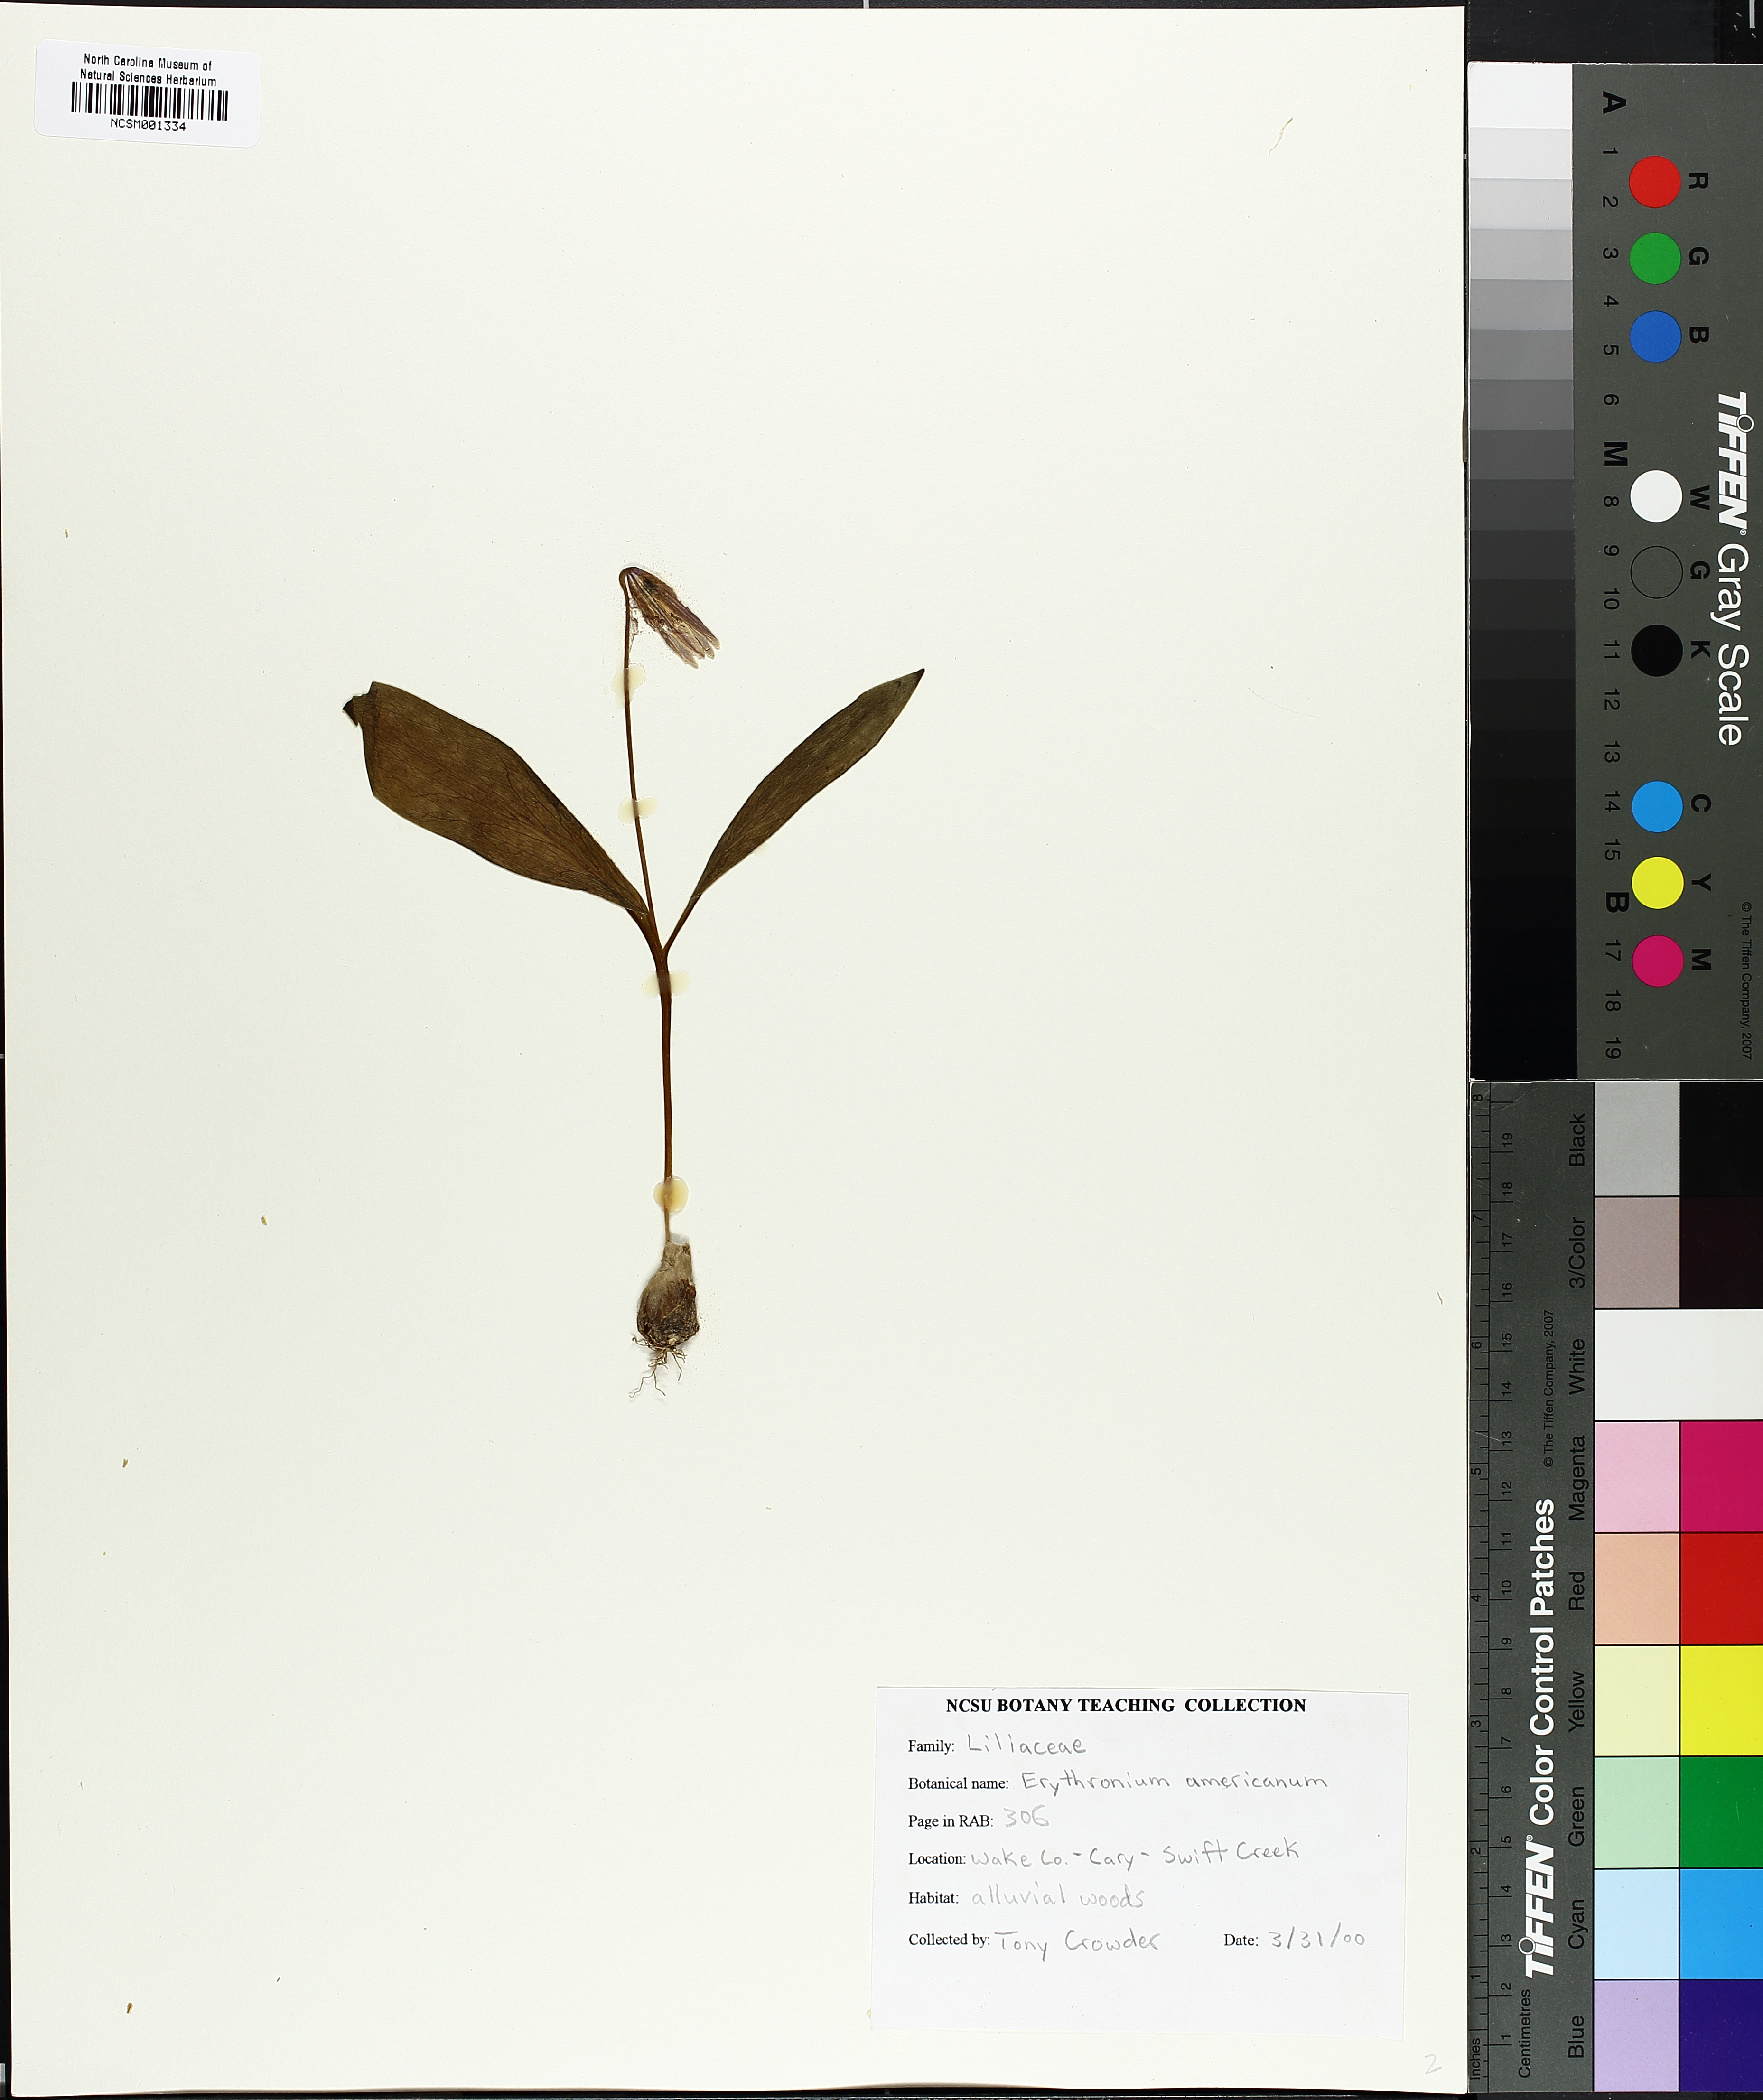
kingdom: Plantae
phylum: Tracheophyta
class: Liliopsida
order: Liliales
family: Liliaceae
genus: Erythronium
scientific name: Erythronium americanum
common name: Yellow adder's-tongue
